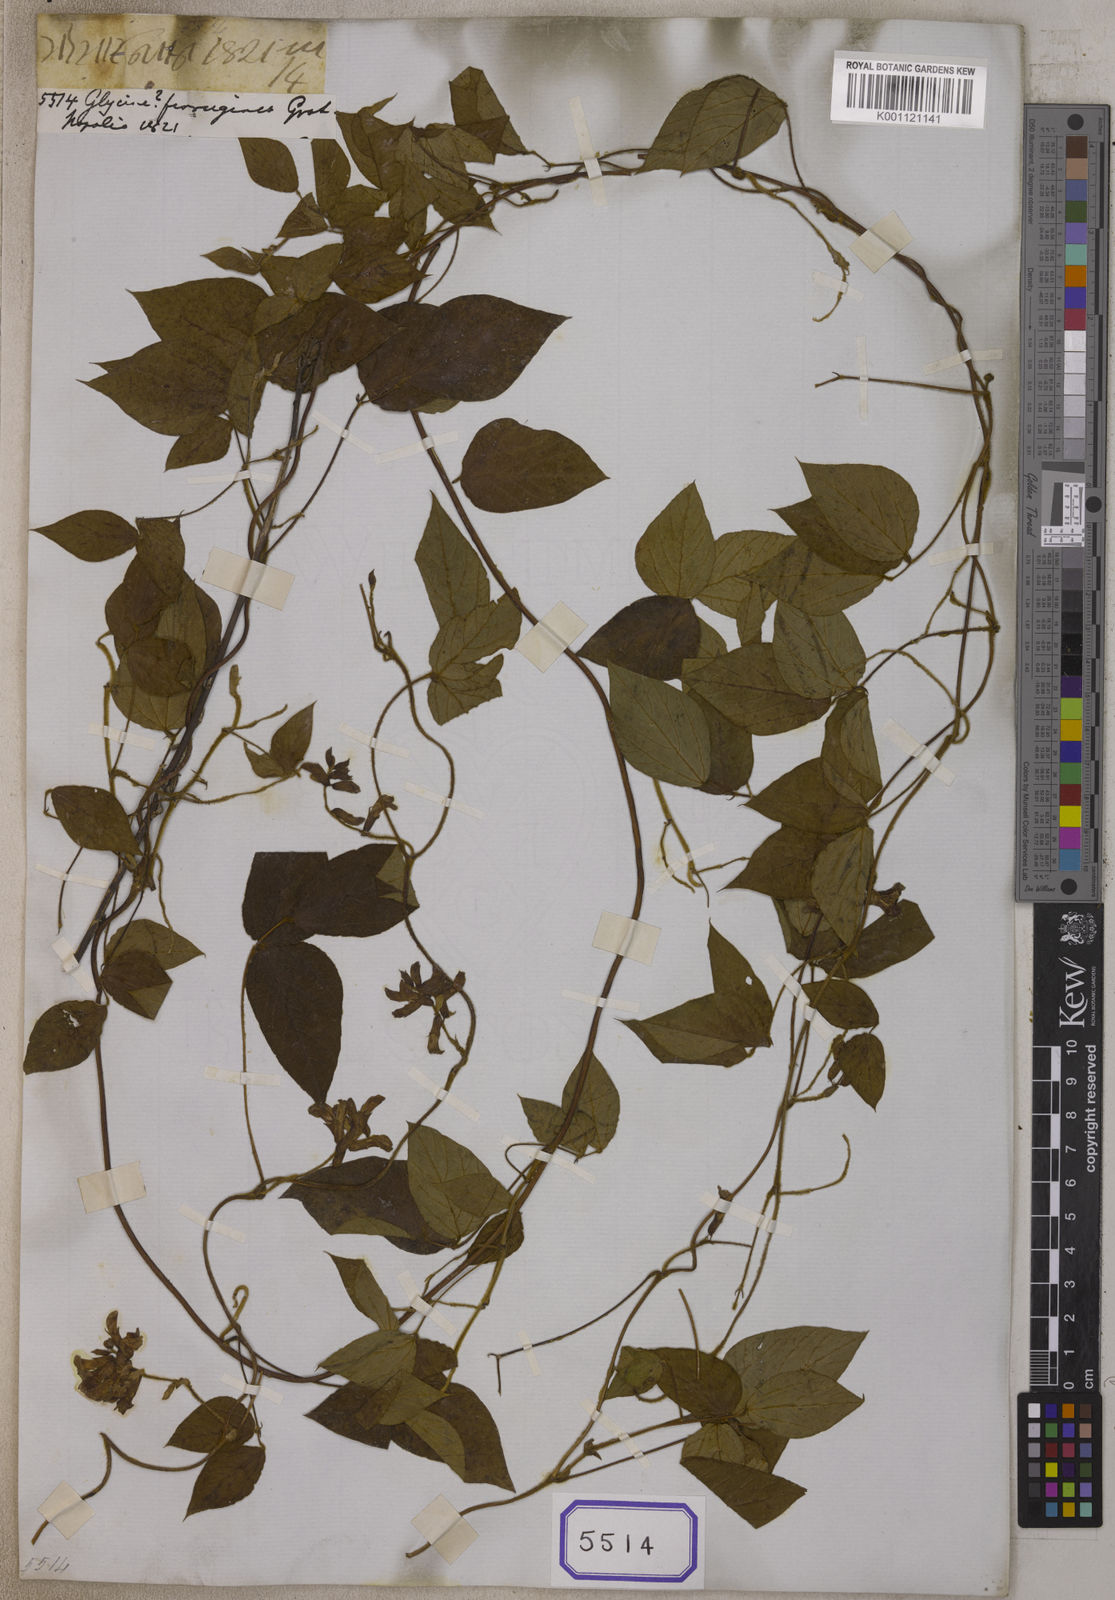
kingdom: Plantae
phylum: Tracheophyta
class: Magnoliopsida
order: Fabales
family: Fabaceae
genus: Amphicarpaea
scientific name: Amphicarpaea ferruginea
